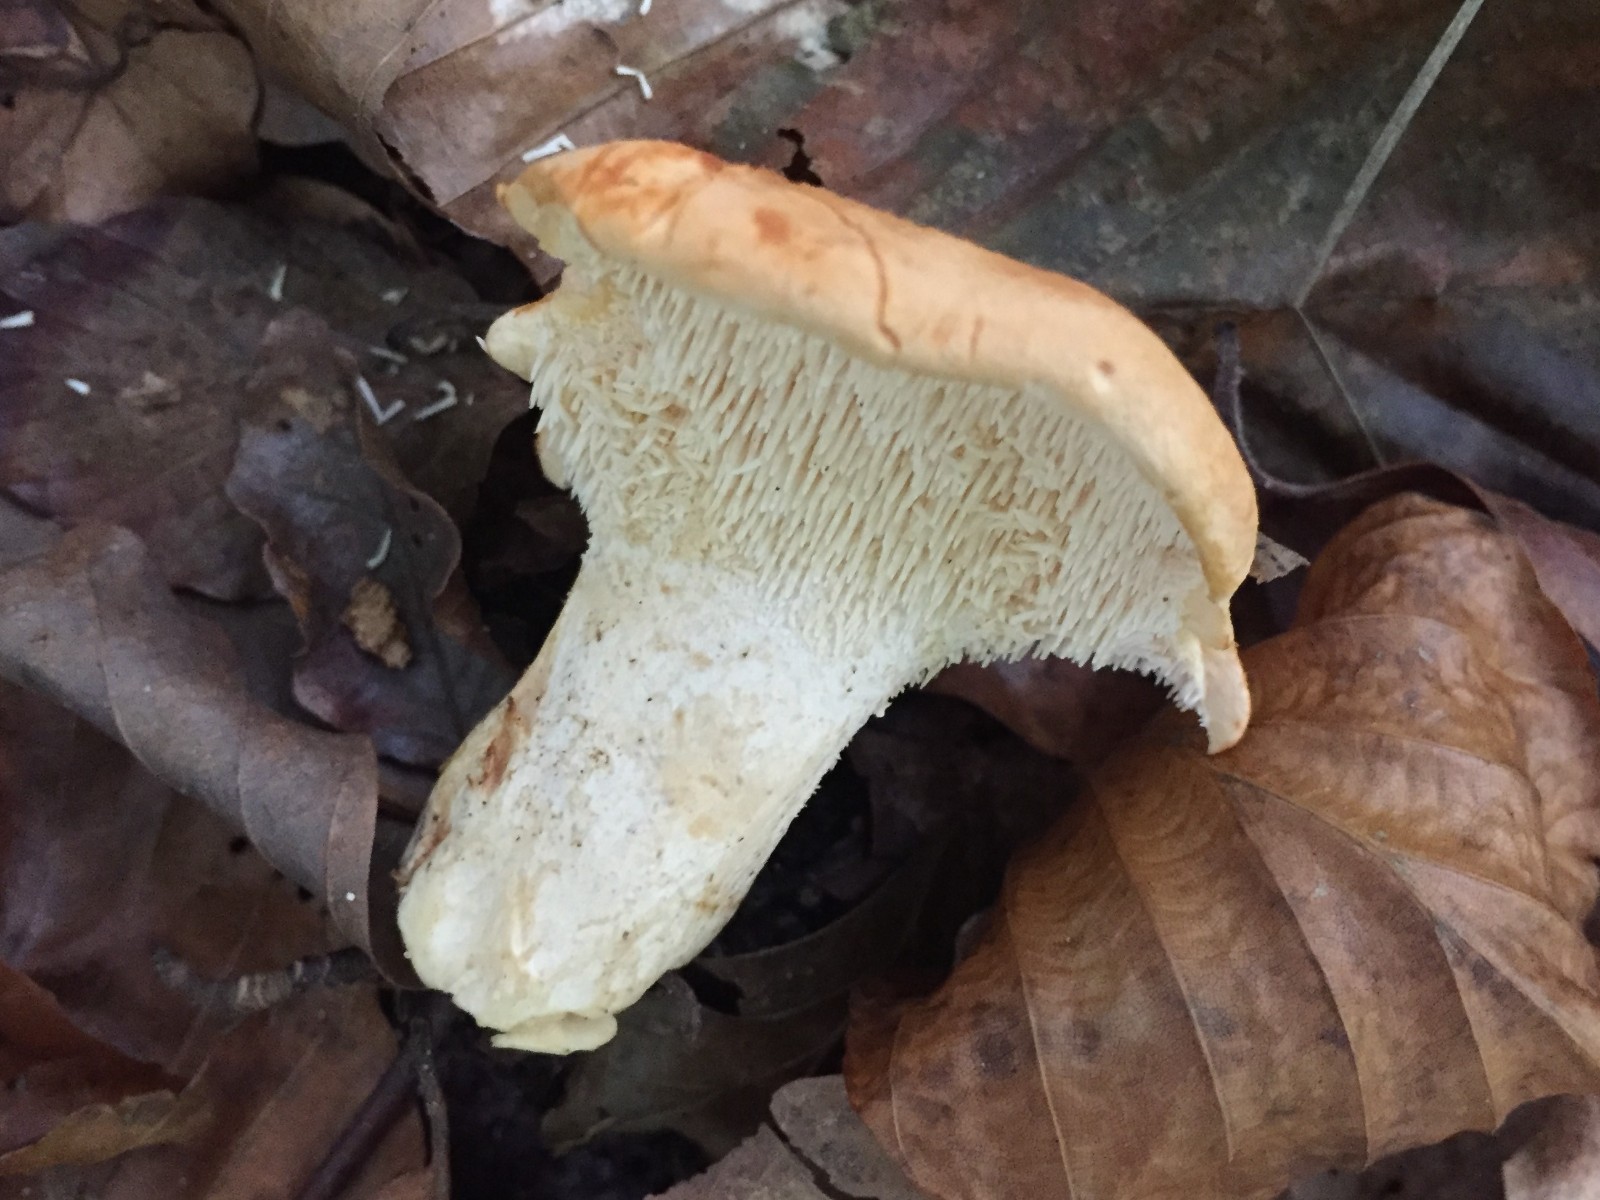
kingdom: Fungi
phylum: Basidiomycota
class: Agaricomycetes
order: Cantharellales
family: Hydnaceae
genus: Hydnum
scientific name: Hydnum rufescens
